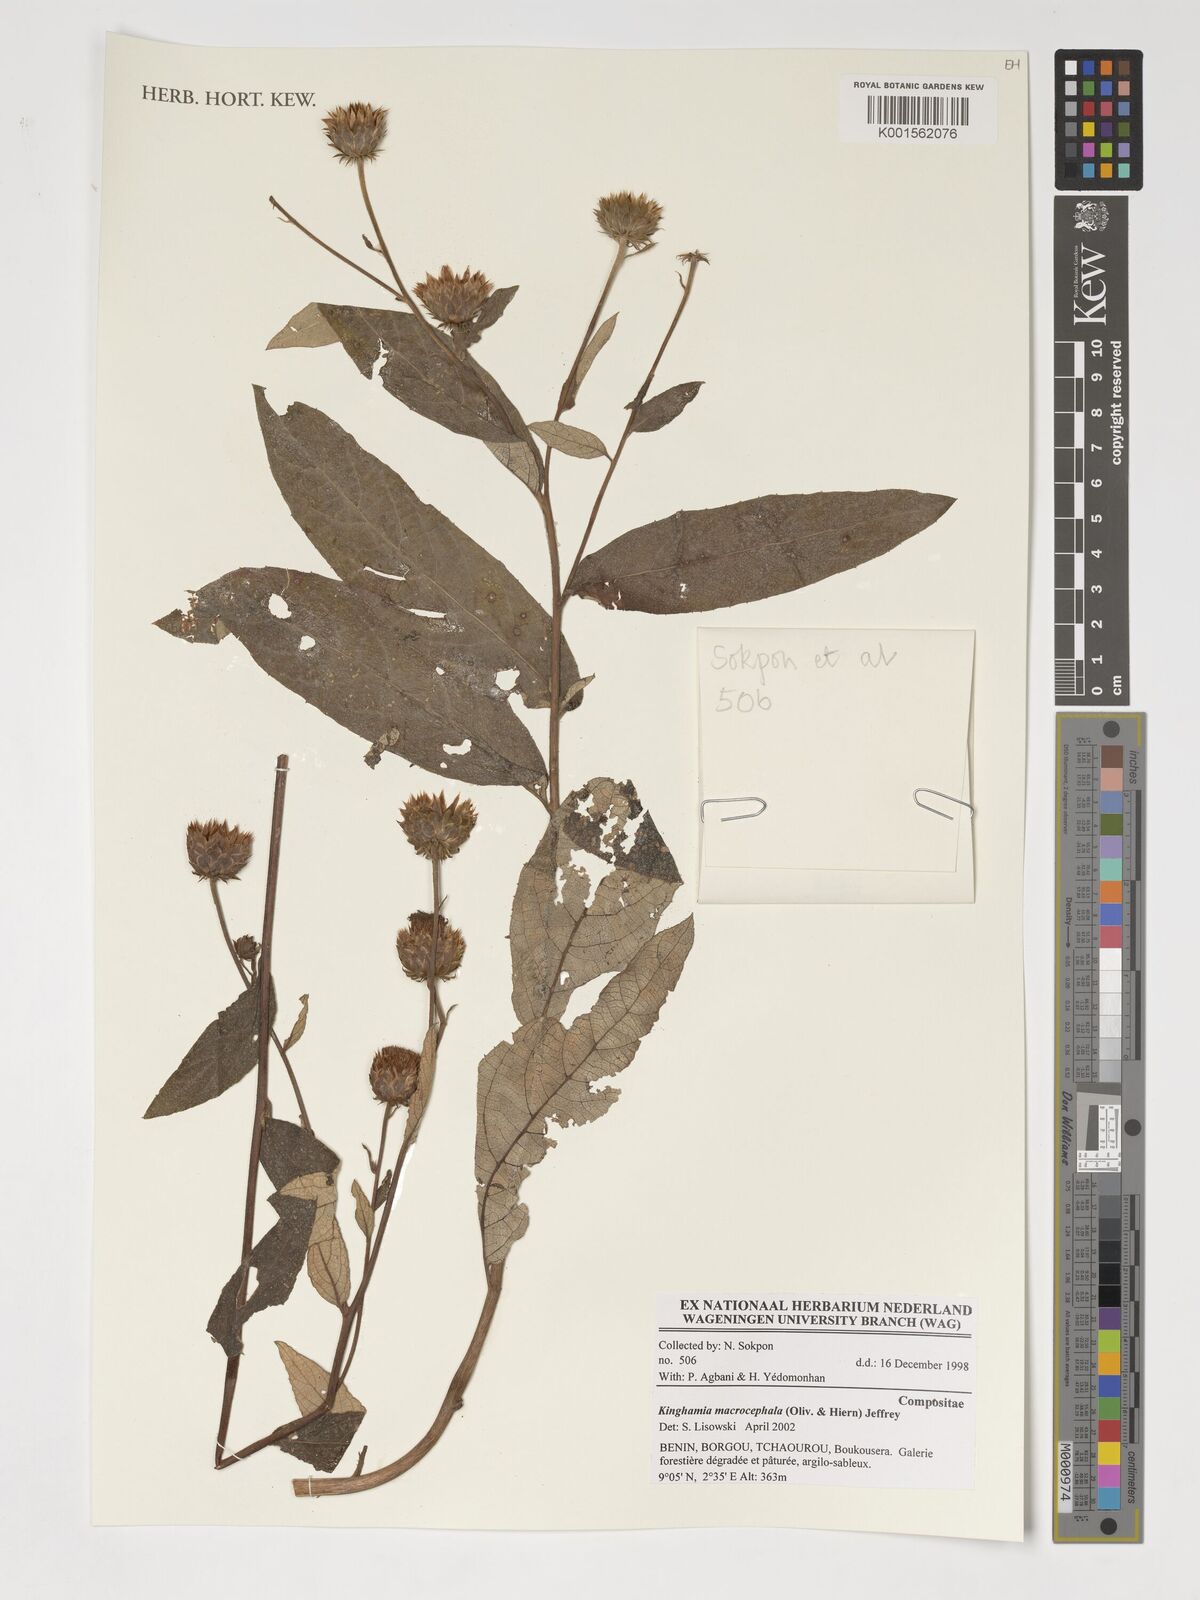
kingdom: Plantae
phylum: Tracheophyta
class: Magnoliopsida
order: Asterales
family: Asteraceae
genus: Kinghamia
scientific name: Kinghamia macrocephala
